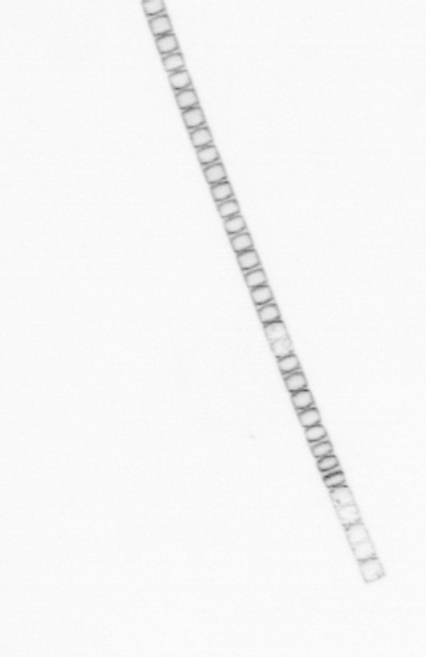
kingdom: Chromista
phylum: Ochrophyta
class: Bacillariophyceae
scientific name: Bacillariophyceae
